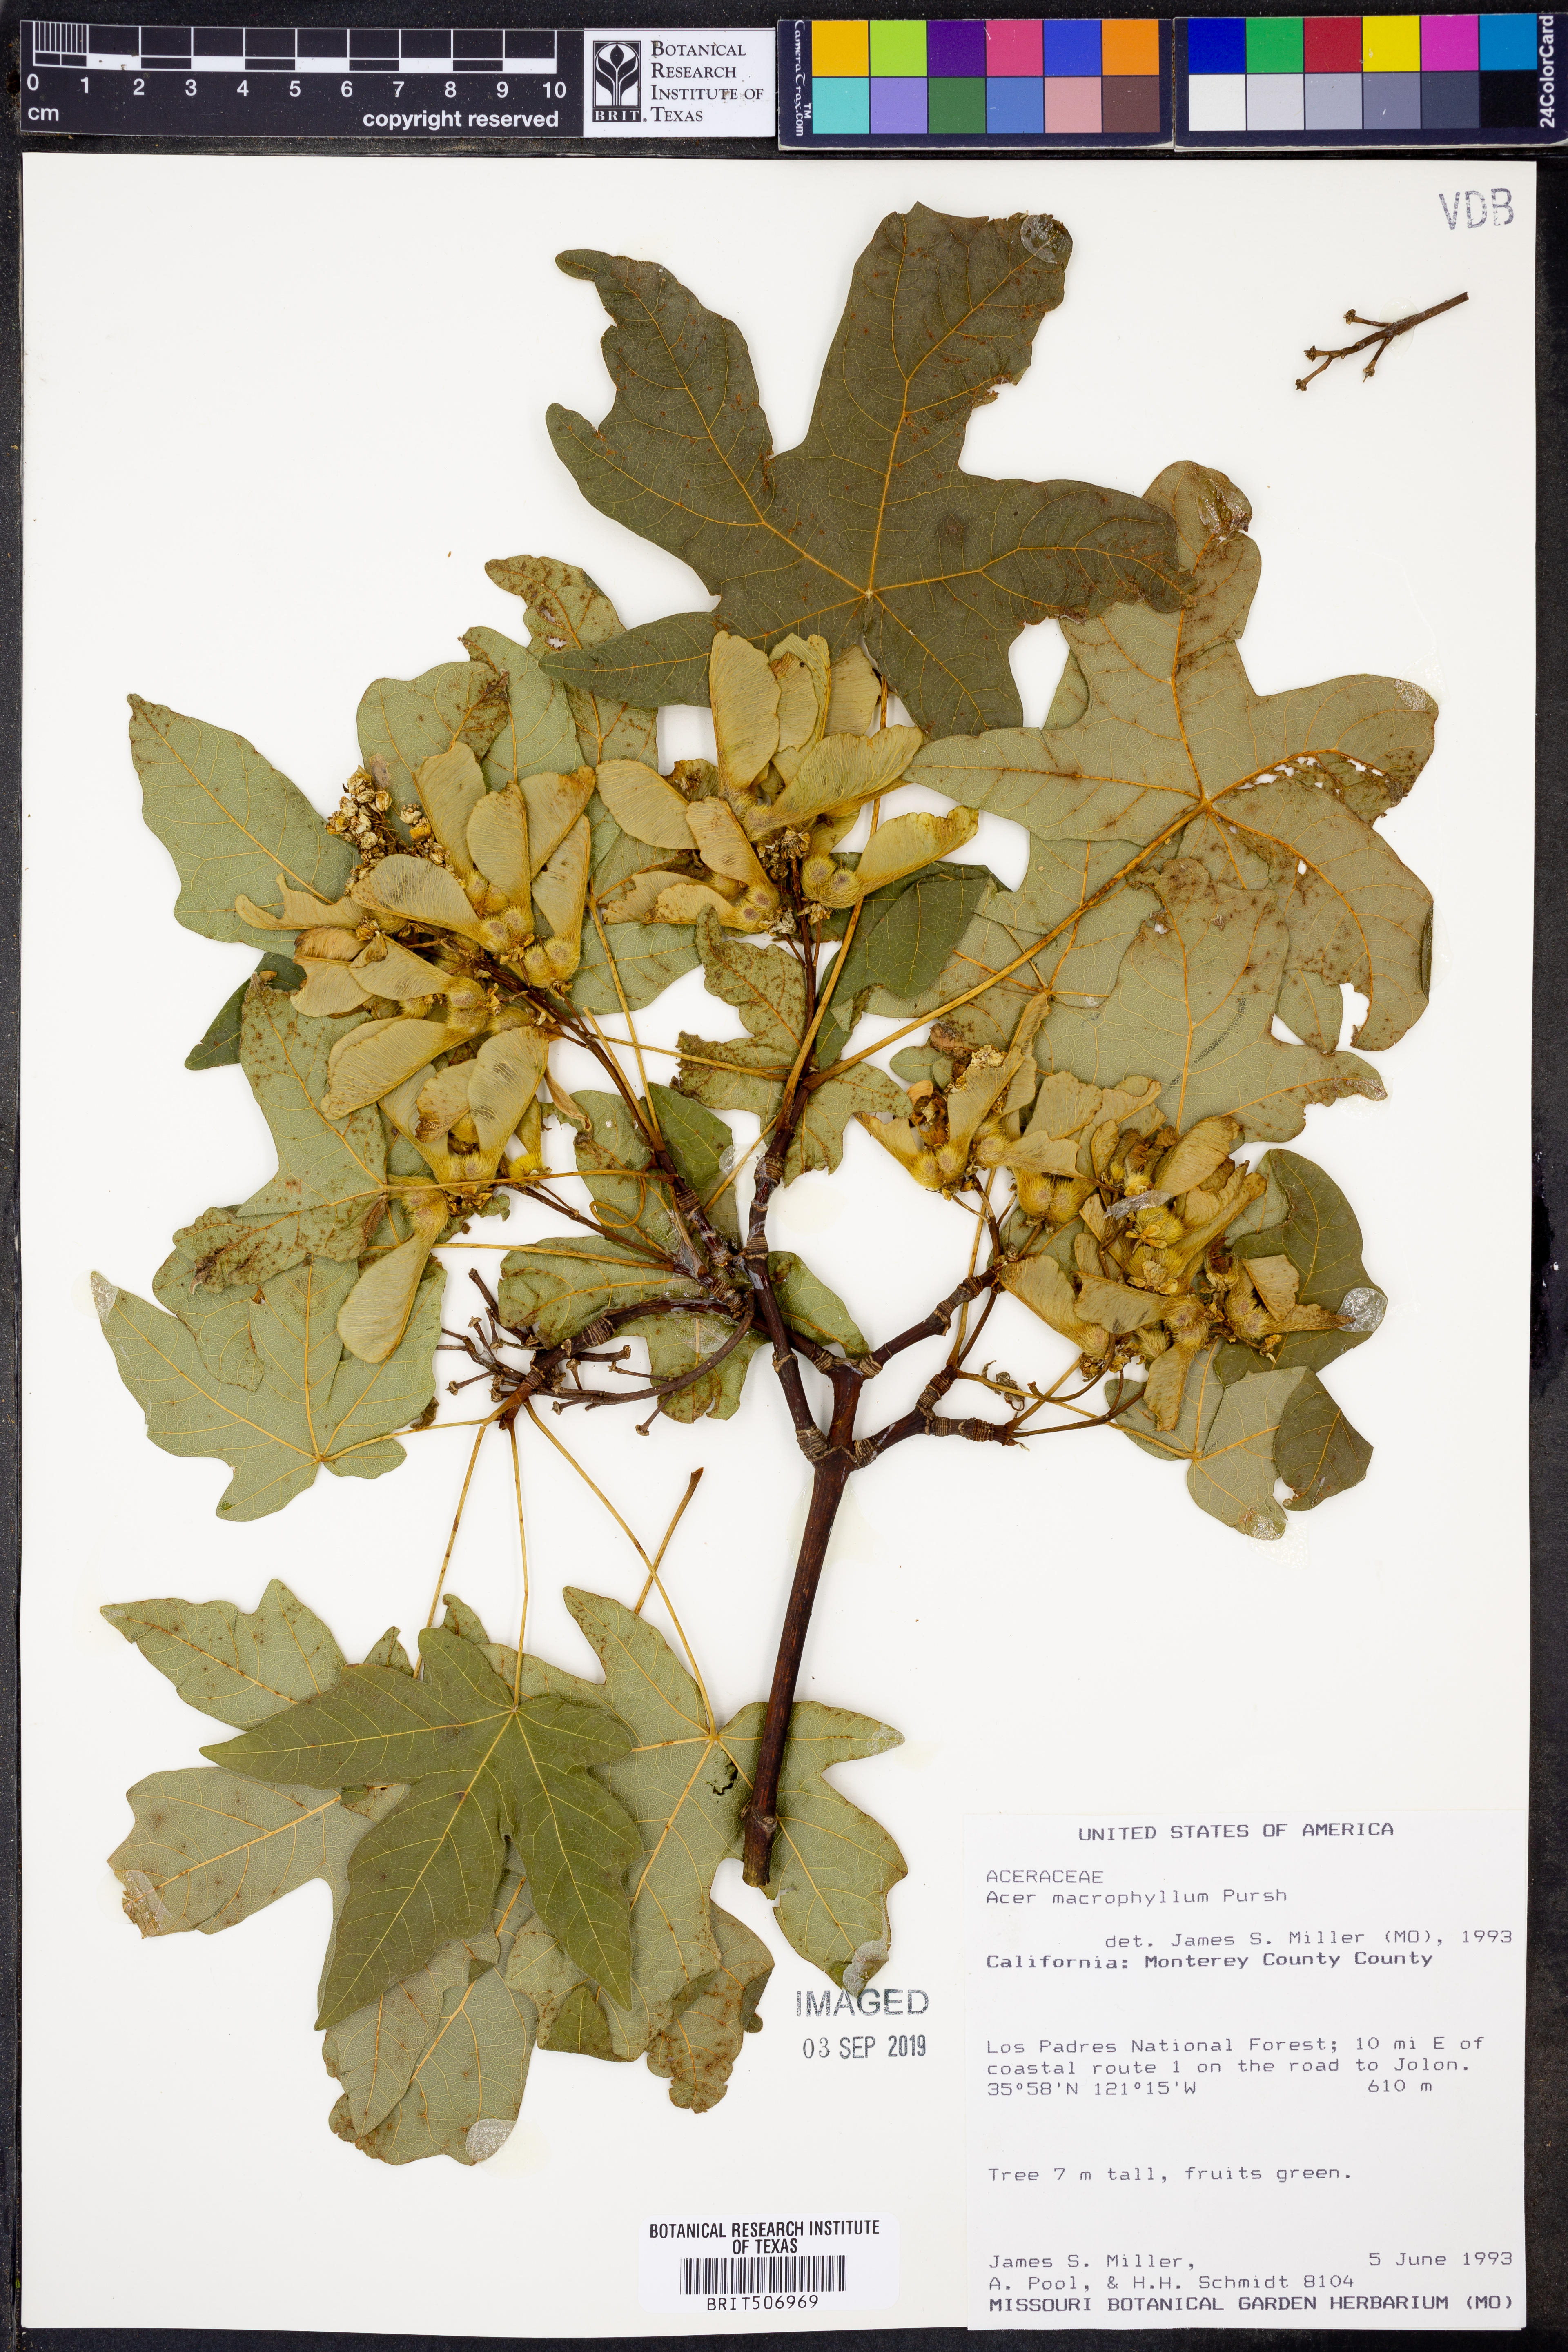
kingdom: Plantae
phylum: Tracheophyta
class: Magnoliopsida
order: Sapindales
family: Sapindaceae
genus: Acer
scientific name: Acer macrophyllum
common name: Oregon maple
